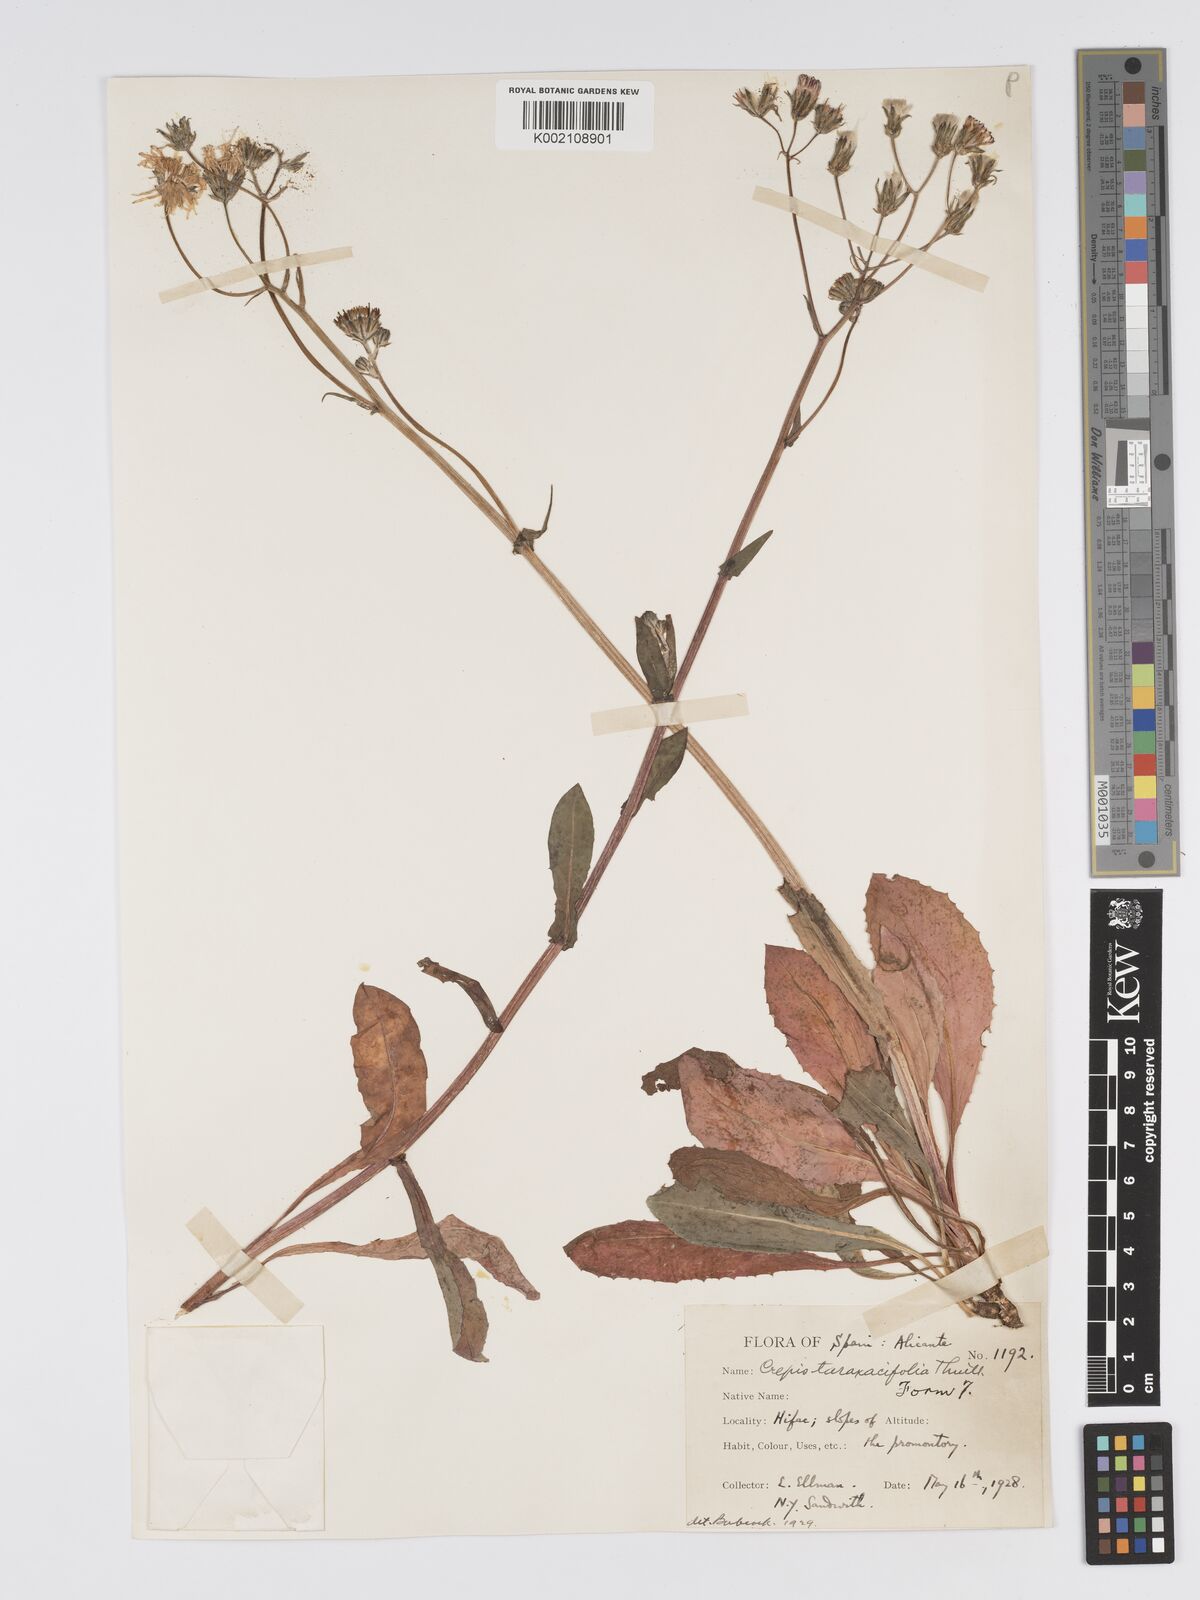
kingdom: Plantae
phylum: Tracheophyta
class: Magnoliopsida
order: Asterales
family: Asteraceae
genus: Crepis
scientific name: Crepis vesicaria
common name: Beaked hawksbeard
